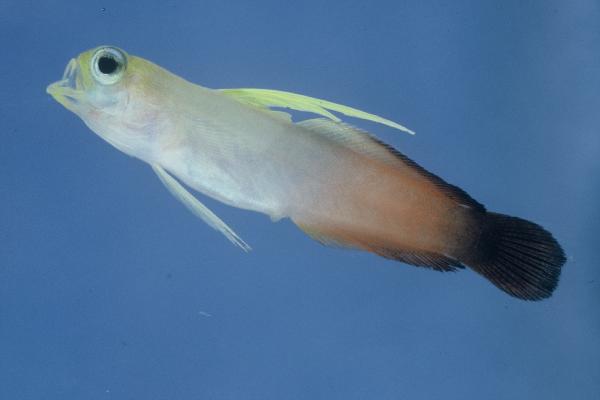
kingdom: Animalia
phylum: Chordata
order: Perciformes
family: Microdesmidae
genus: Nemateleotris
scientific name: Nemateleotris magnifica
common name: Fire goby
